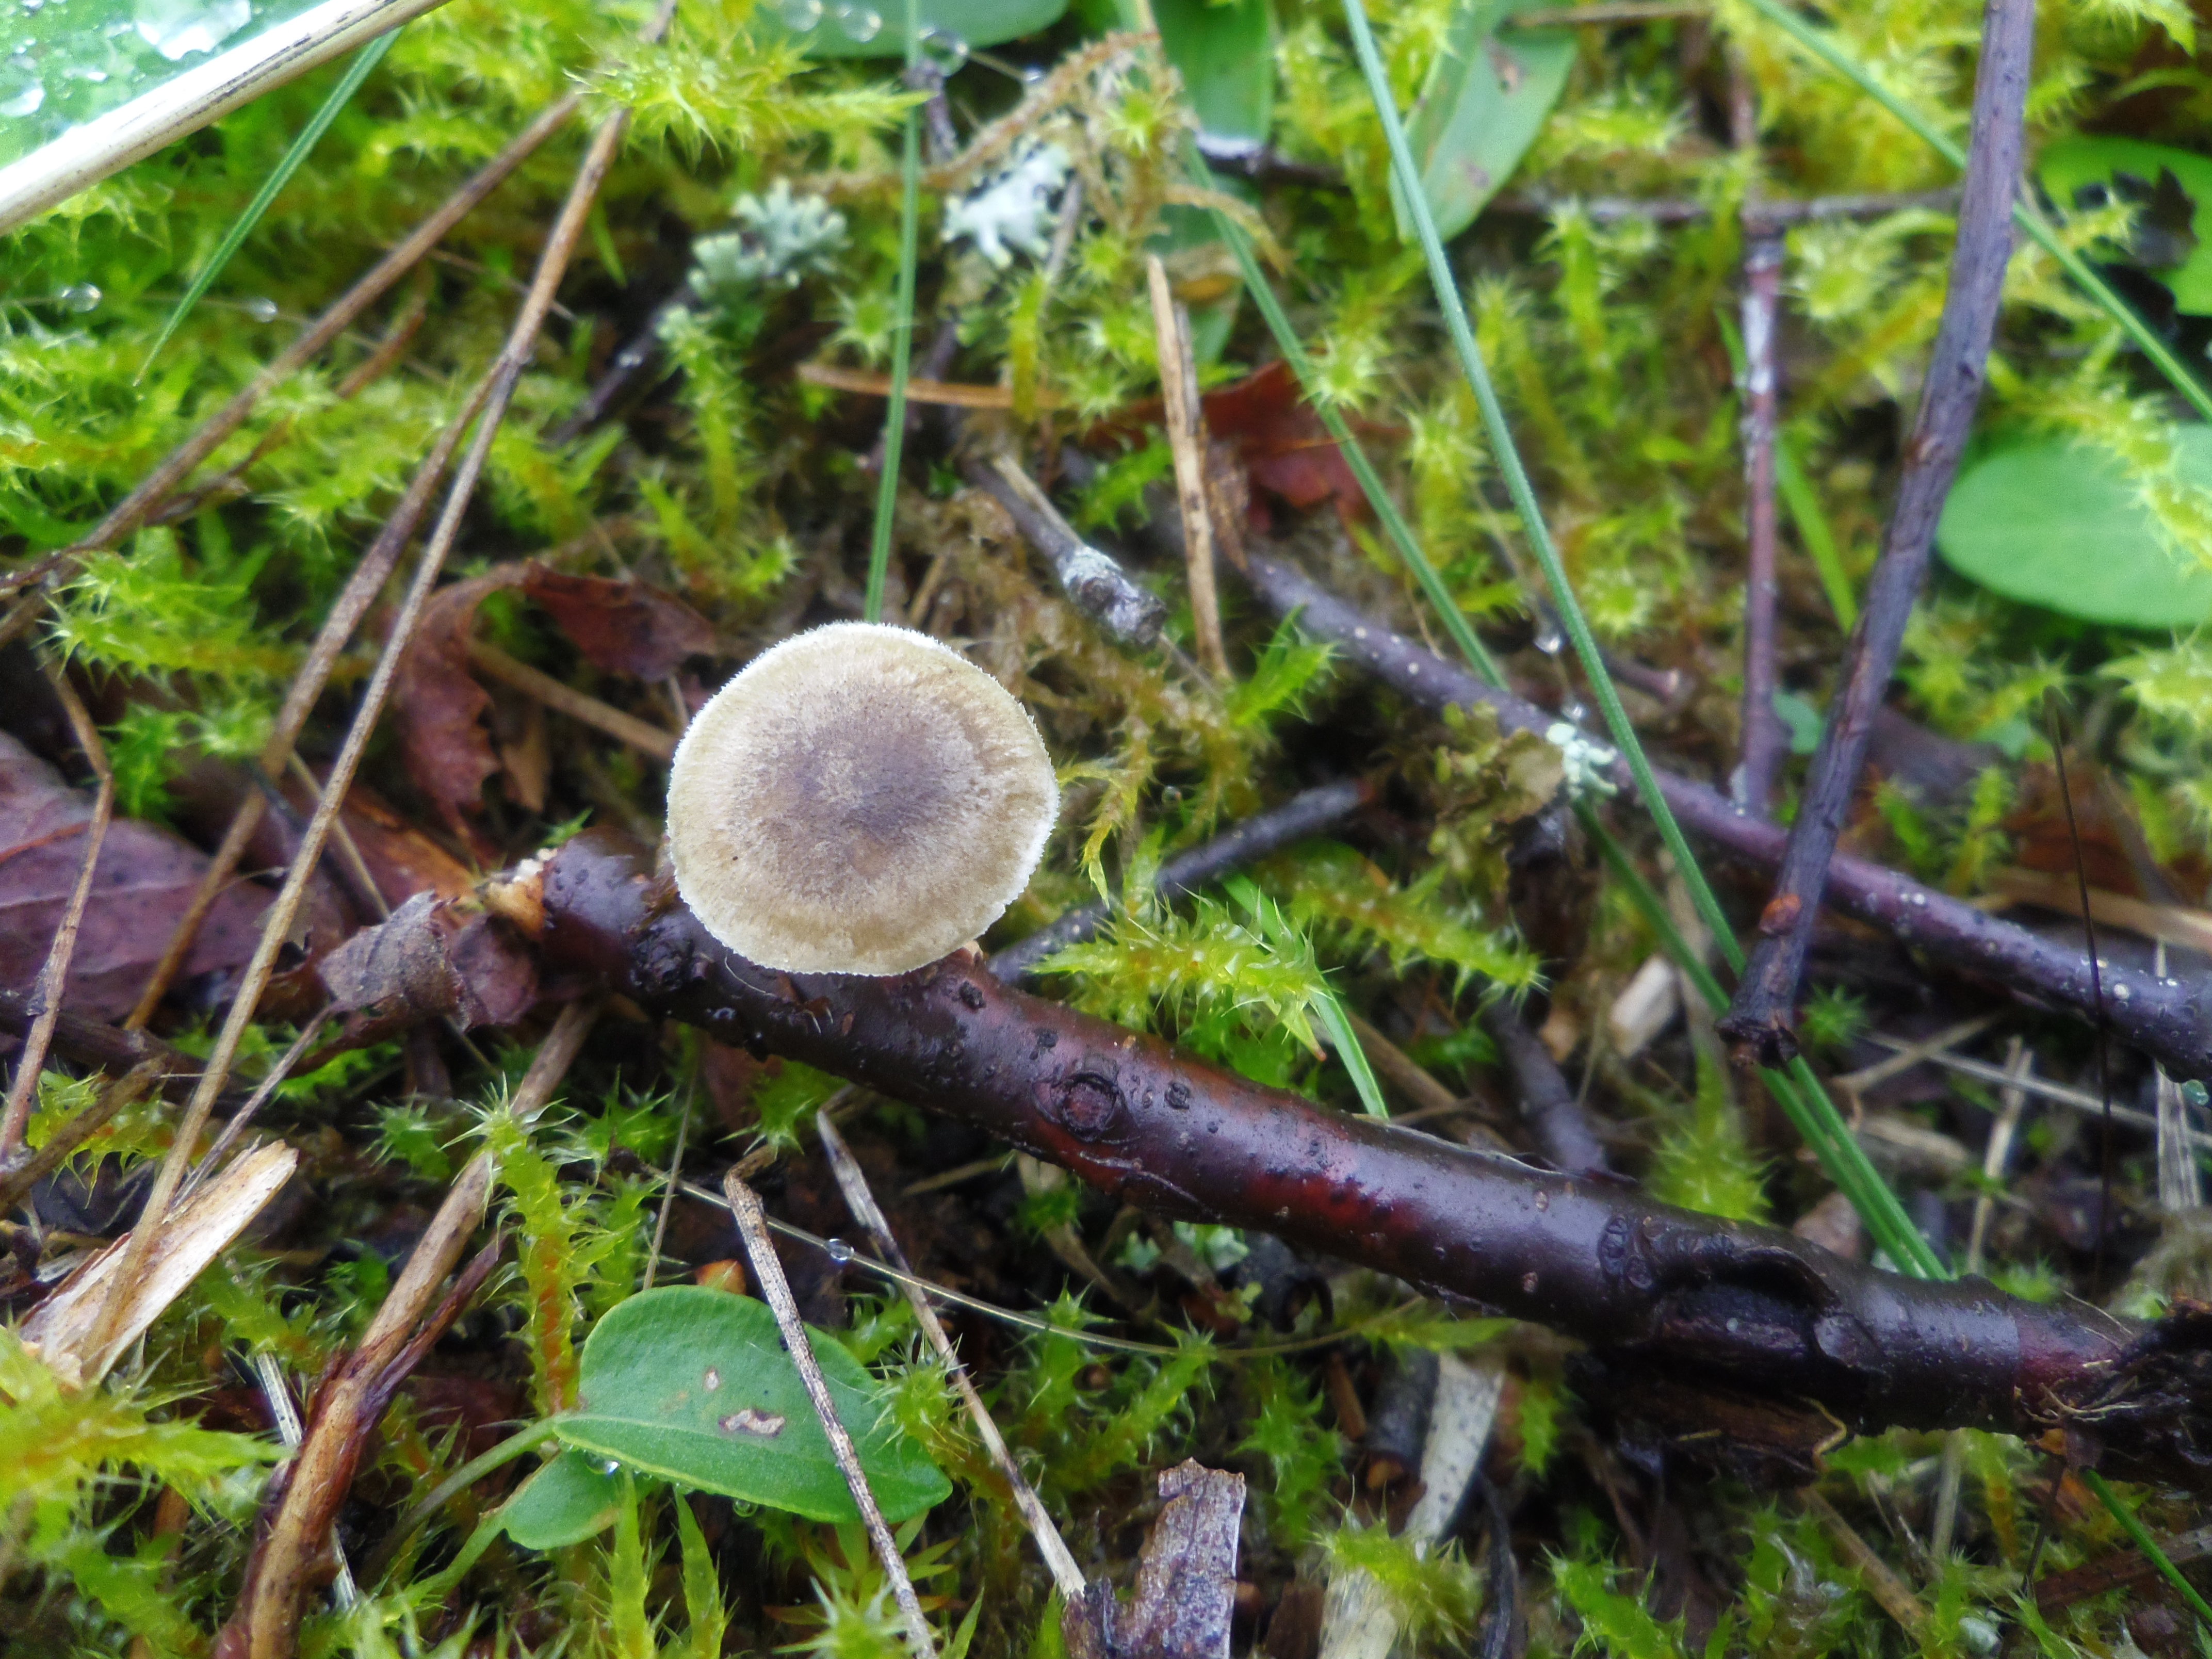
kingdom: Fungi
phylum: Basidiomycota
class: Agaricomycetes
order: Polyporales
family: Polyporaceae
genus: Lentinus
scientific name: Lentinus brumalis
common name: Winter polypore
